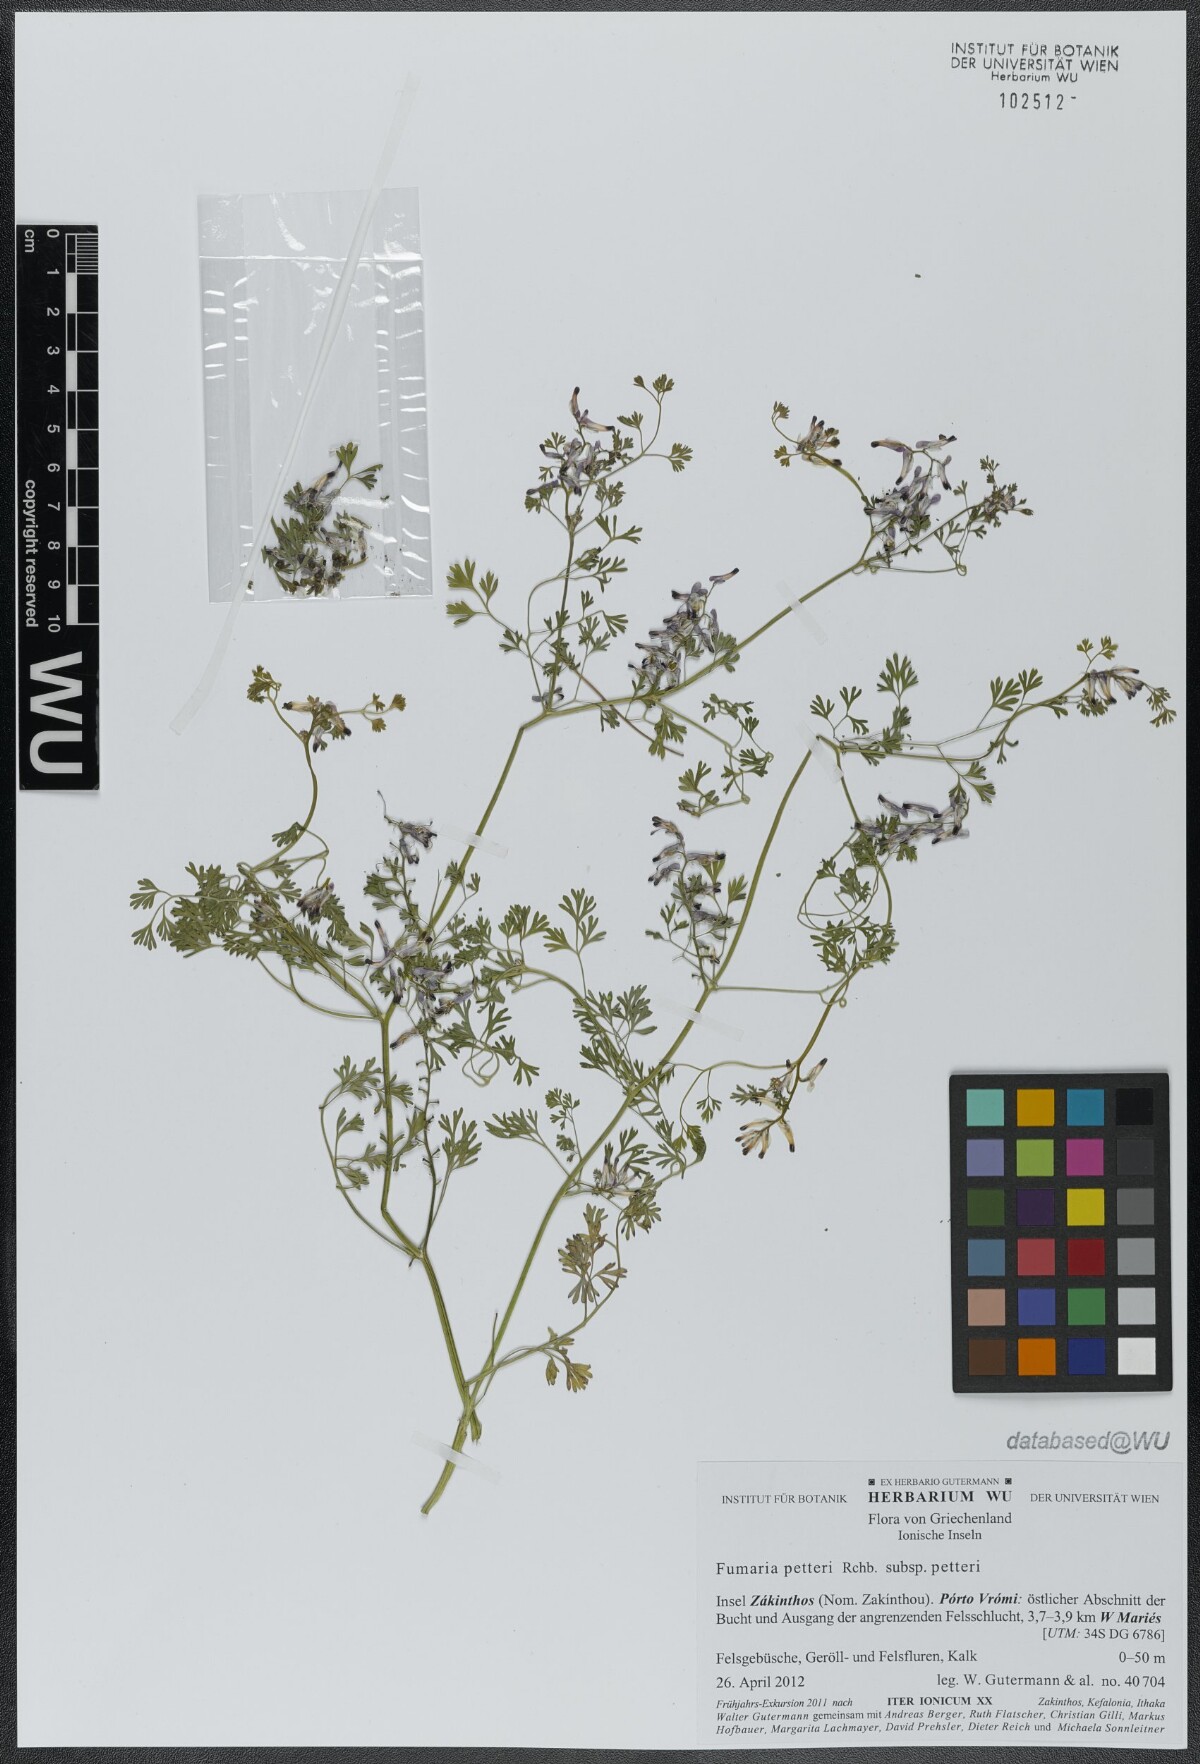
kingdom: Plantae
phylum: Tracheophyta
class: Magnoliopsida
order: Ranunculales
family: Papaveraceae
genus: Fumaria
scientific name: Fumaria petteri
